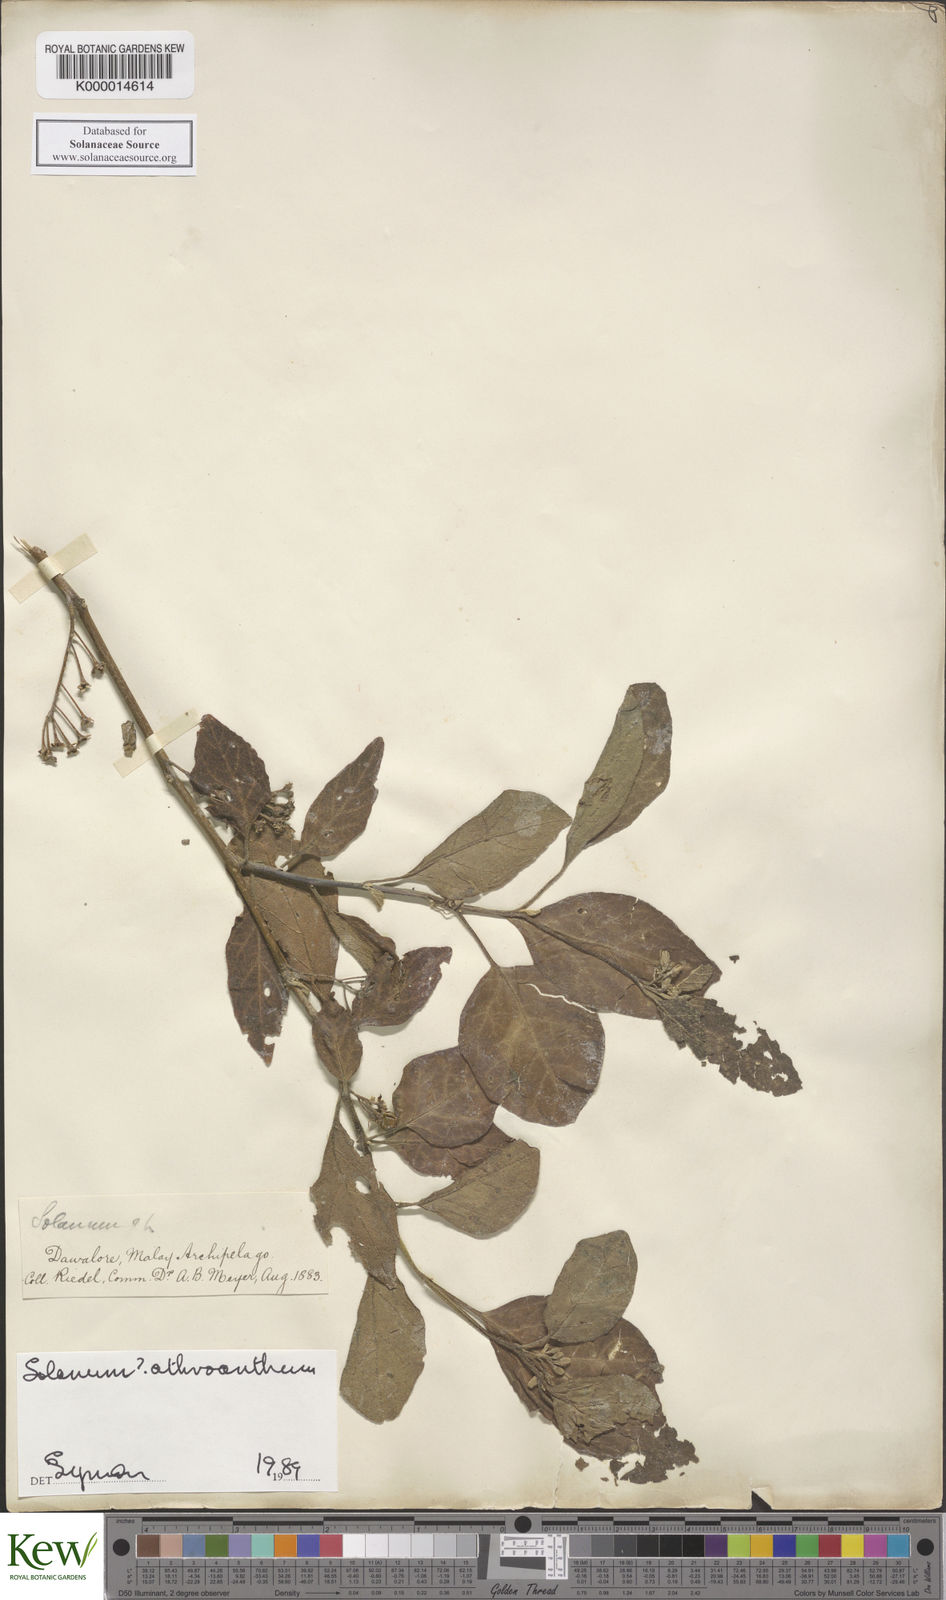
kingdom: Plantae
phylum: Tracheophyta
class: Magnoliopsida
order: Solanales
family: Solanaceae
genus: Solanum
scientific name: Solanum graciliflorum
